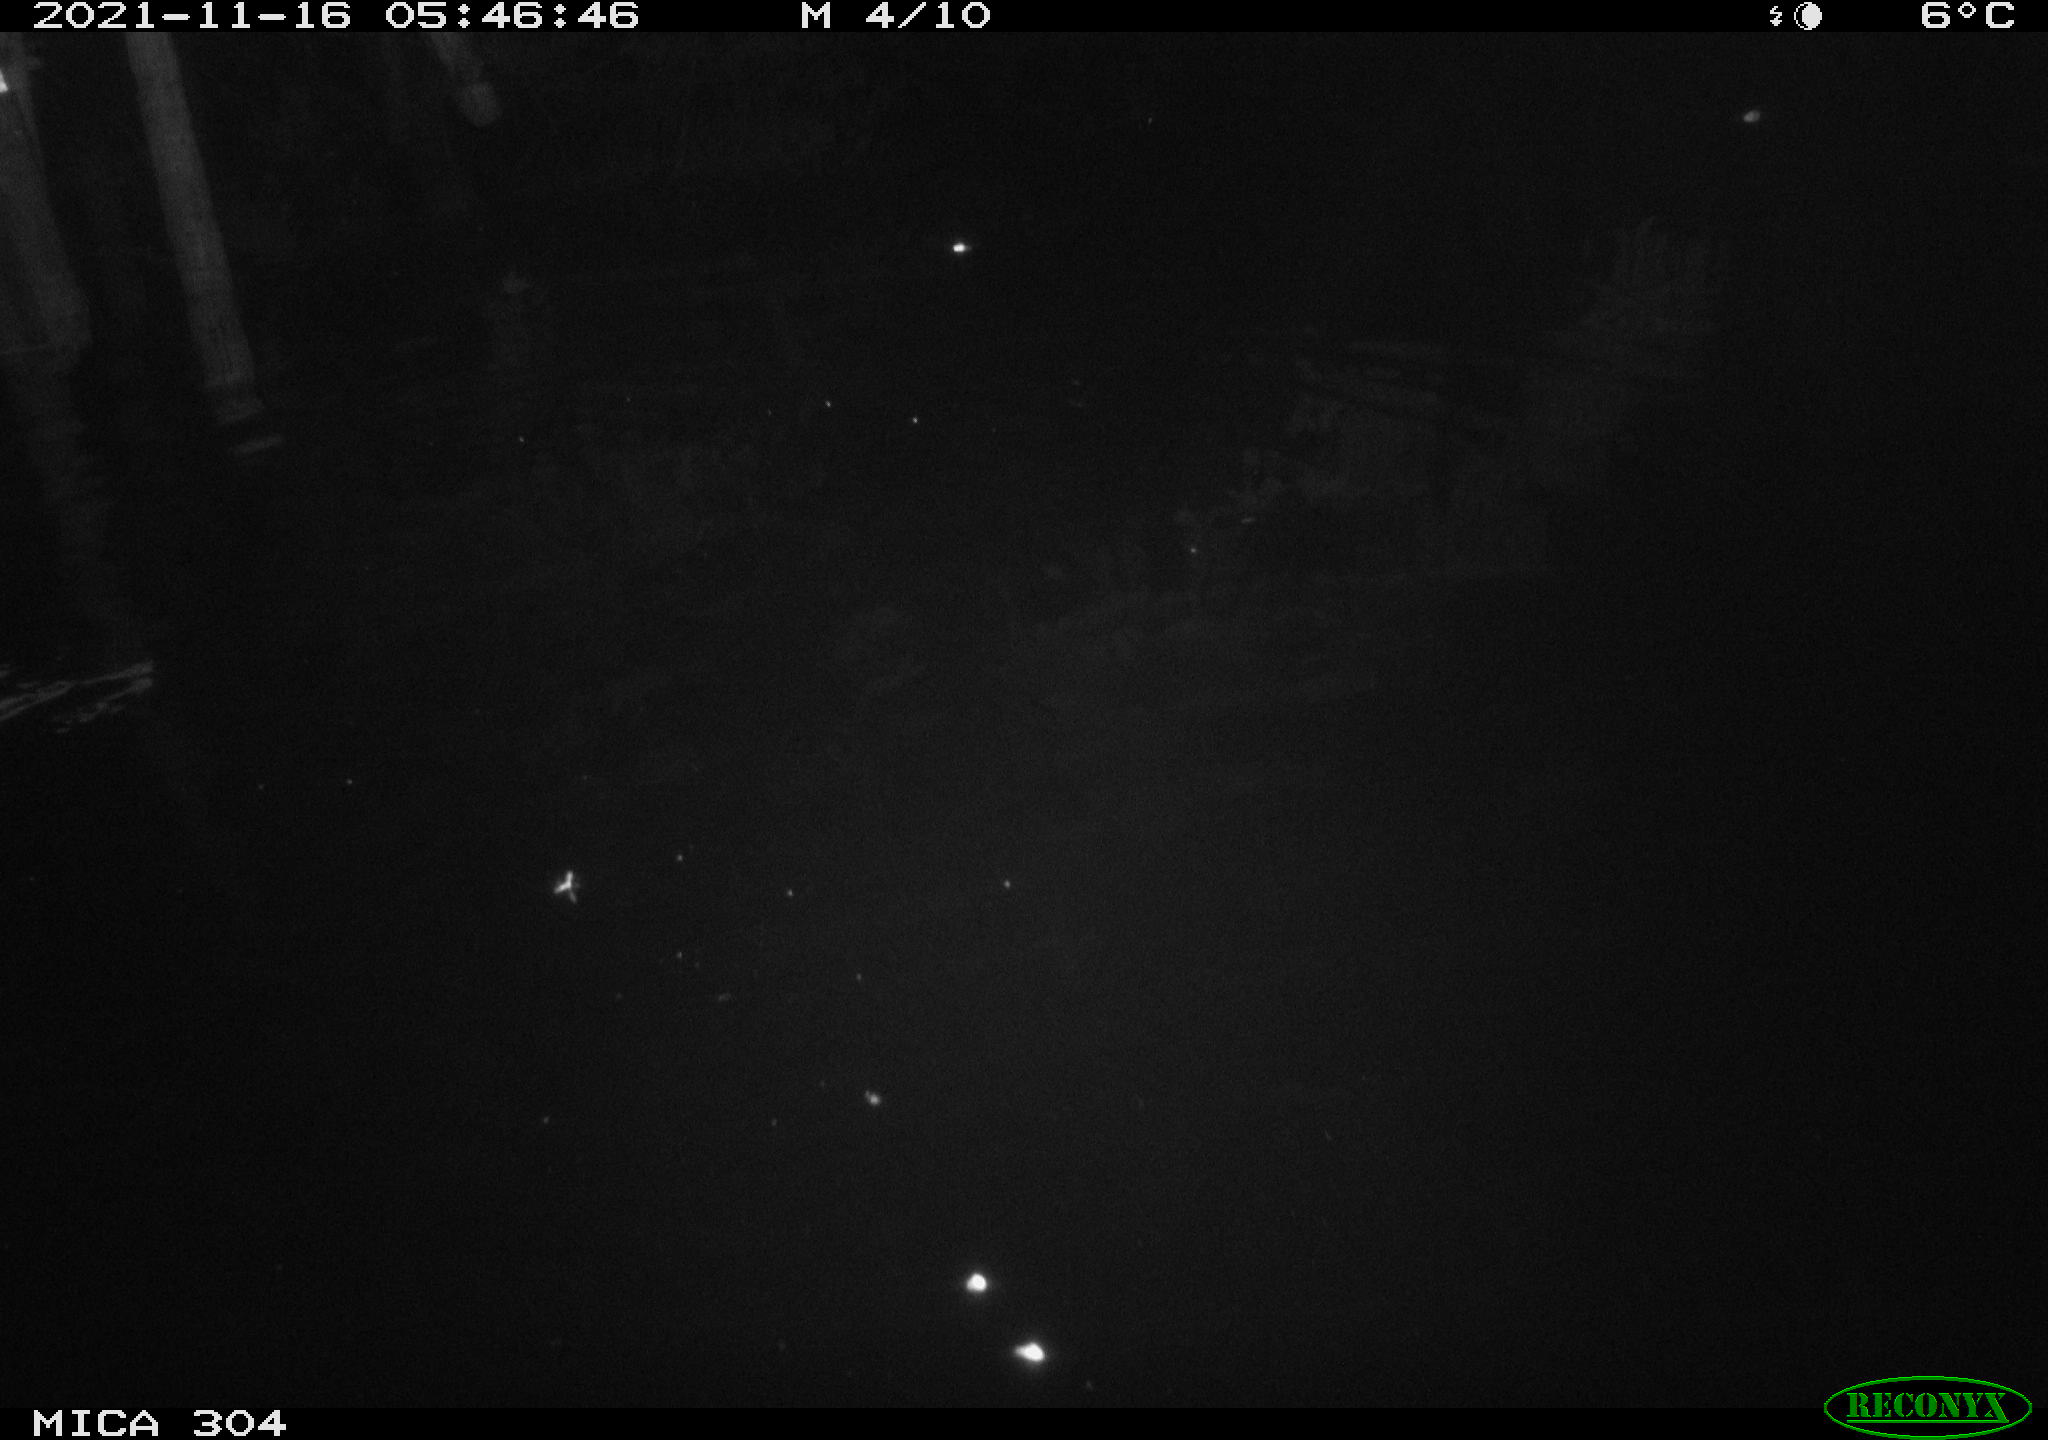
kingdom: Animalia
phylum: Chordata
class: Mammalia
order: Rodentia
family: Muridae
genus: Rattus
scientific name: Rattus norvegicus
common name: Brown rat
